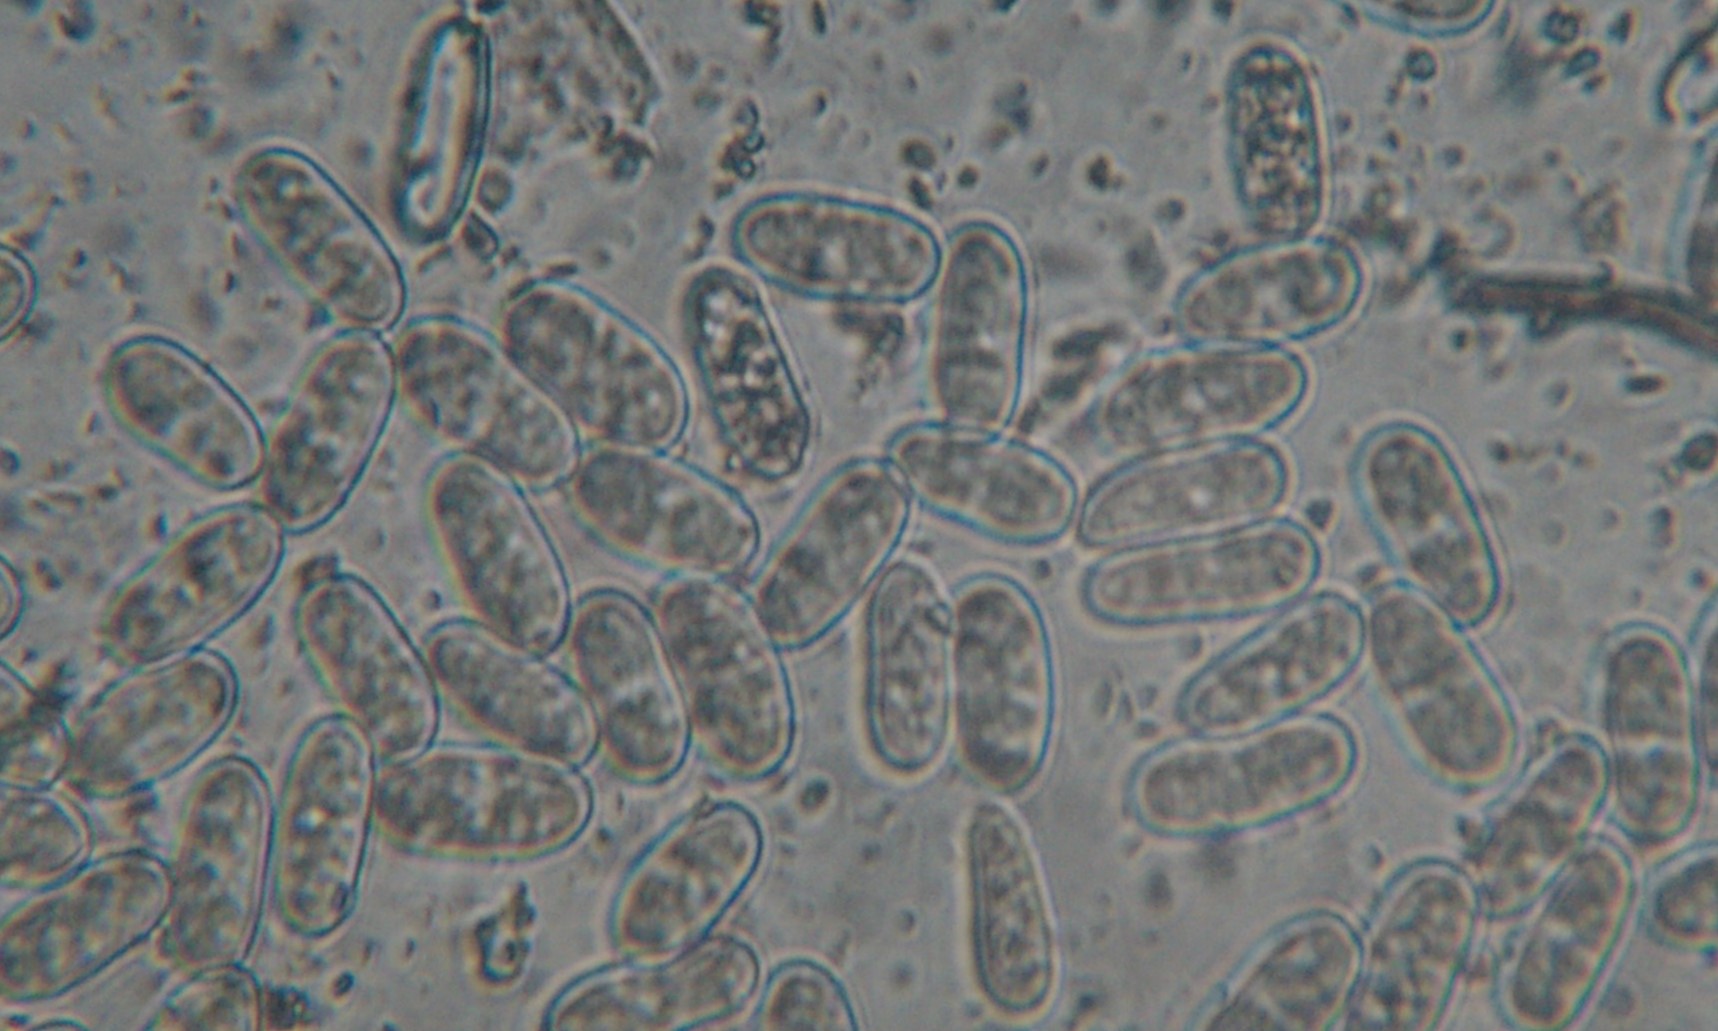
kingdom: Fungi
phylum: Ascomycota
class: Sordariomycetes
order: Diaporthales
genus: Botryodiplodia
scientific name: Botryodiplodia fraxini
